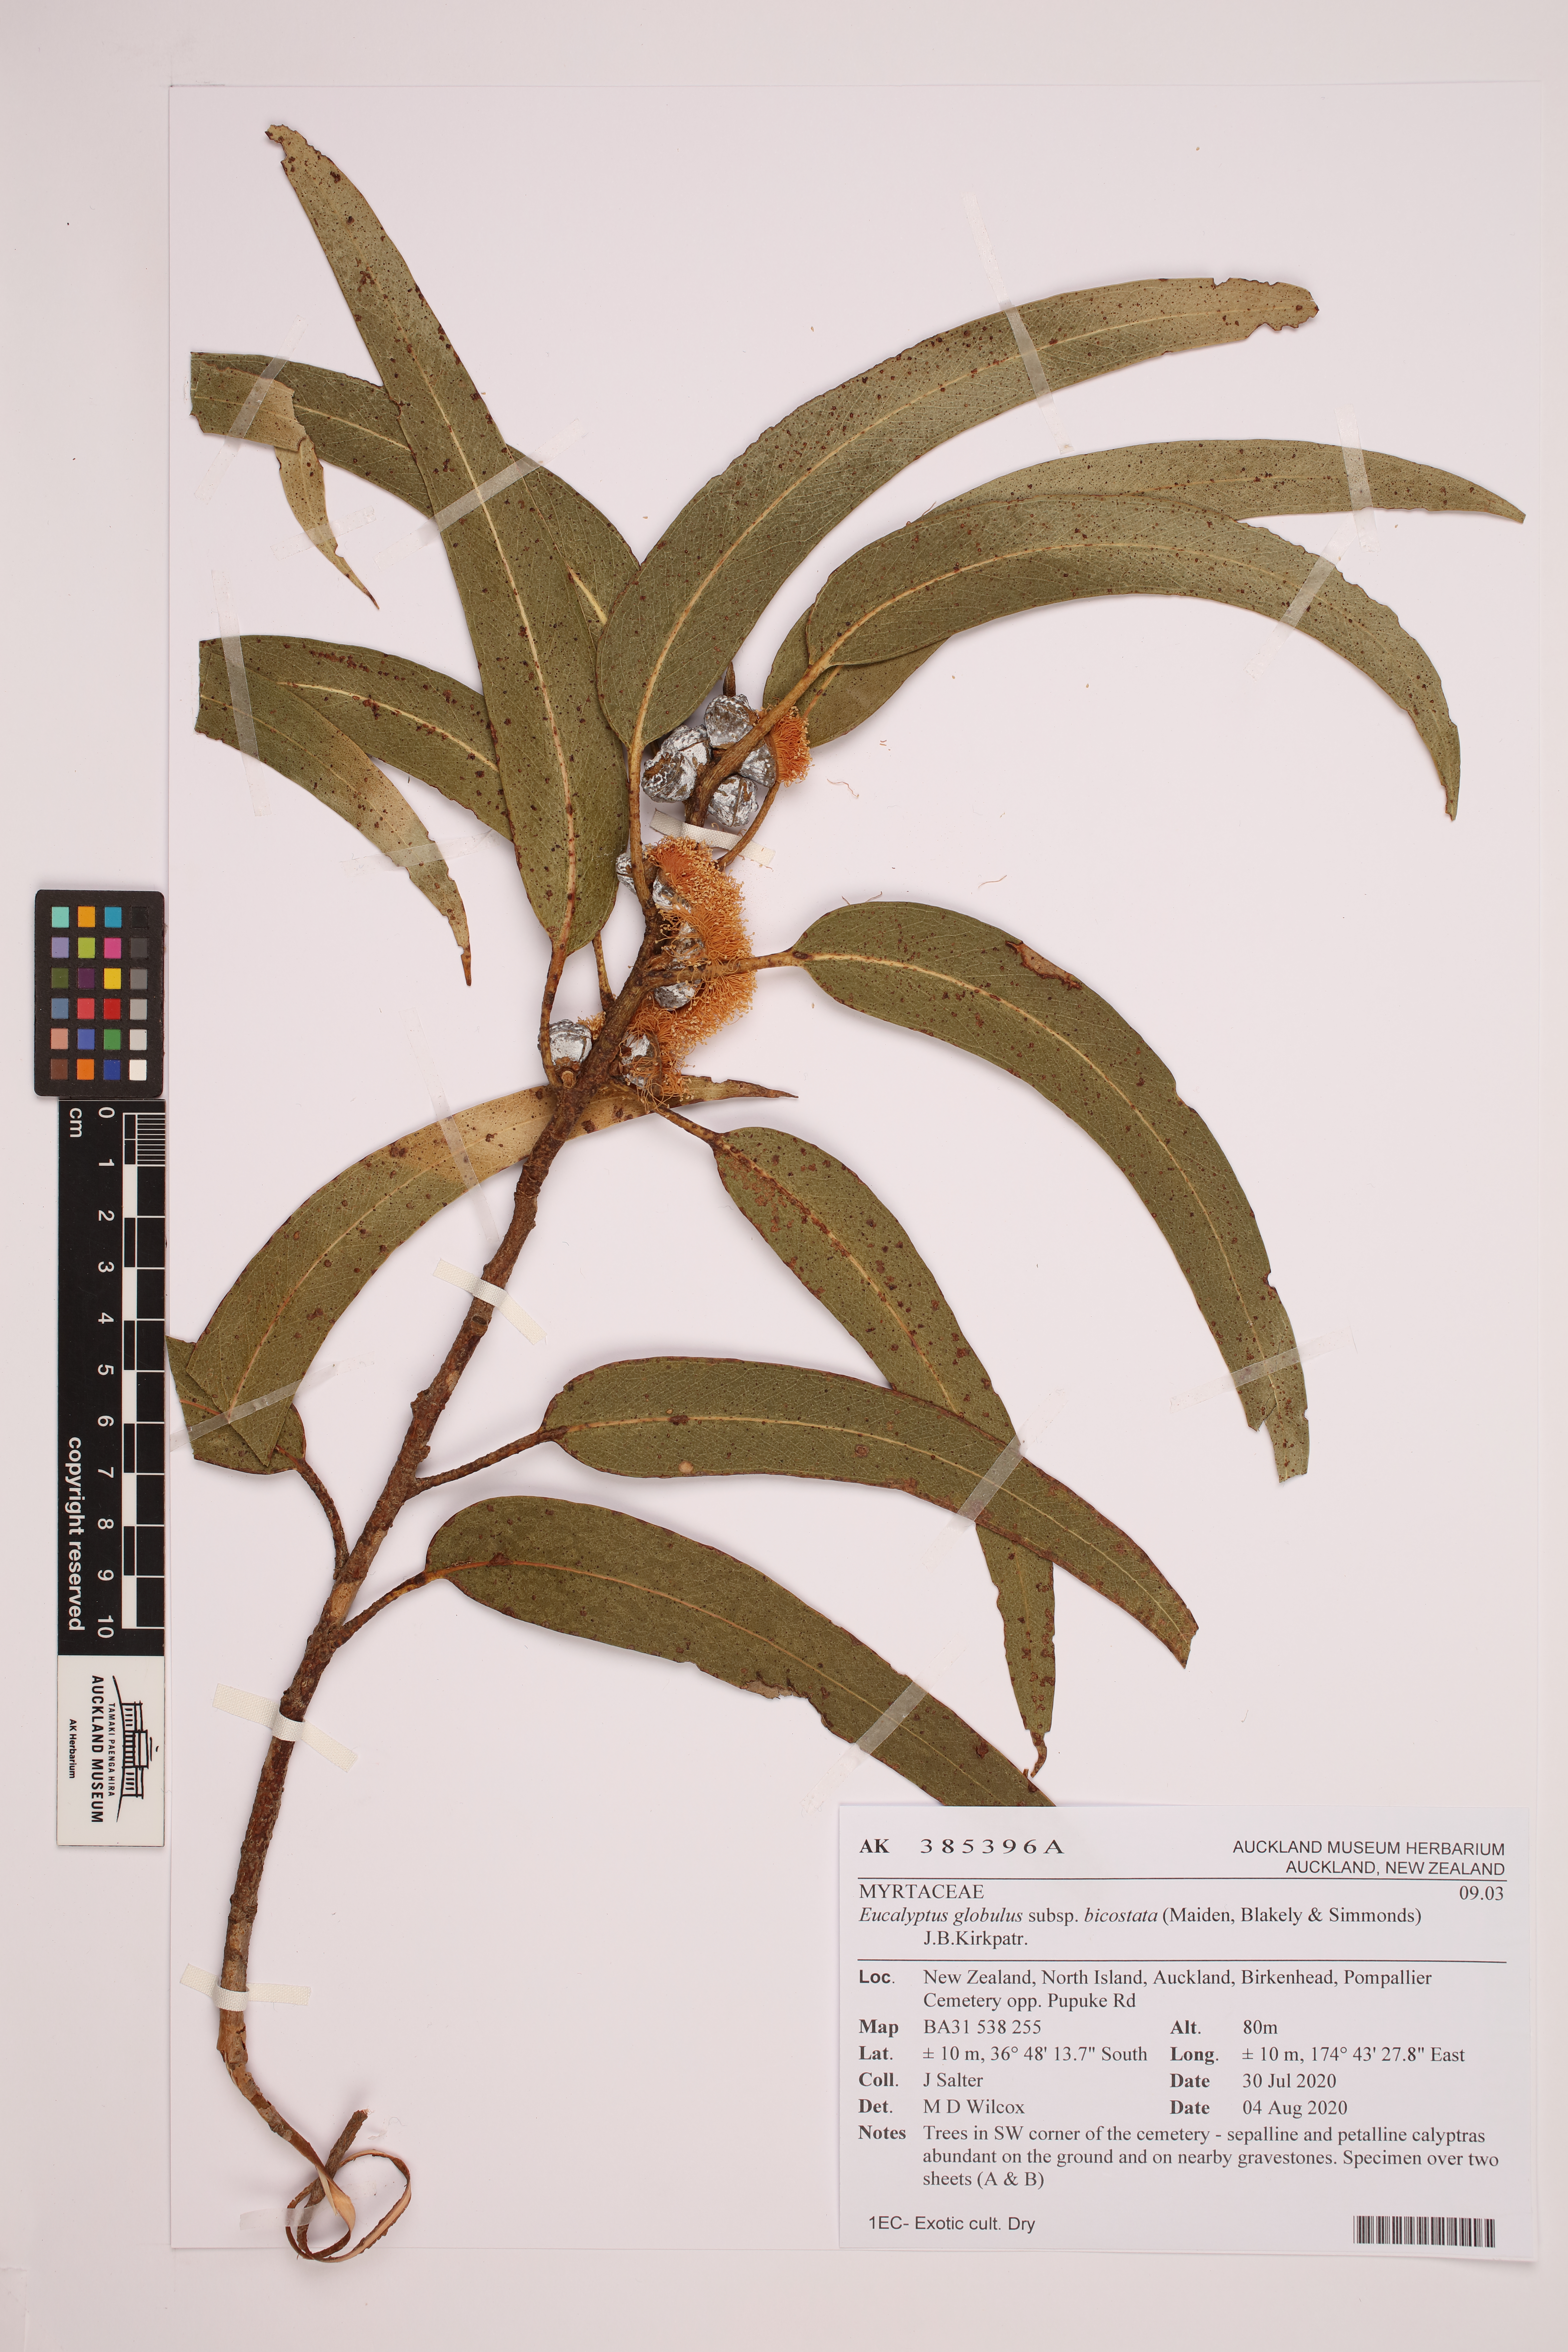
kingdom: Plantae
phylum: Tracheophyta
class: Magnoliopsida
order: Myrtales
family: Myrtaceae
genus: Eucalyptus
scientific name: Eucalyptus globulus
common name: Southern blue-gum
